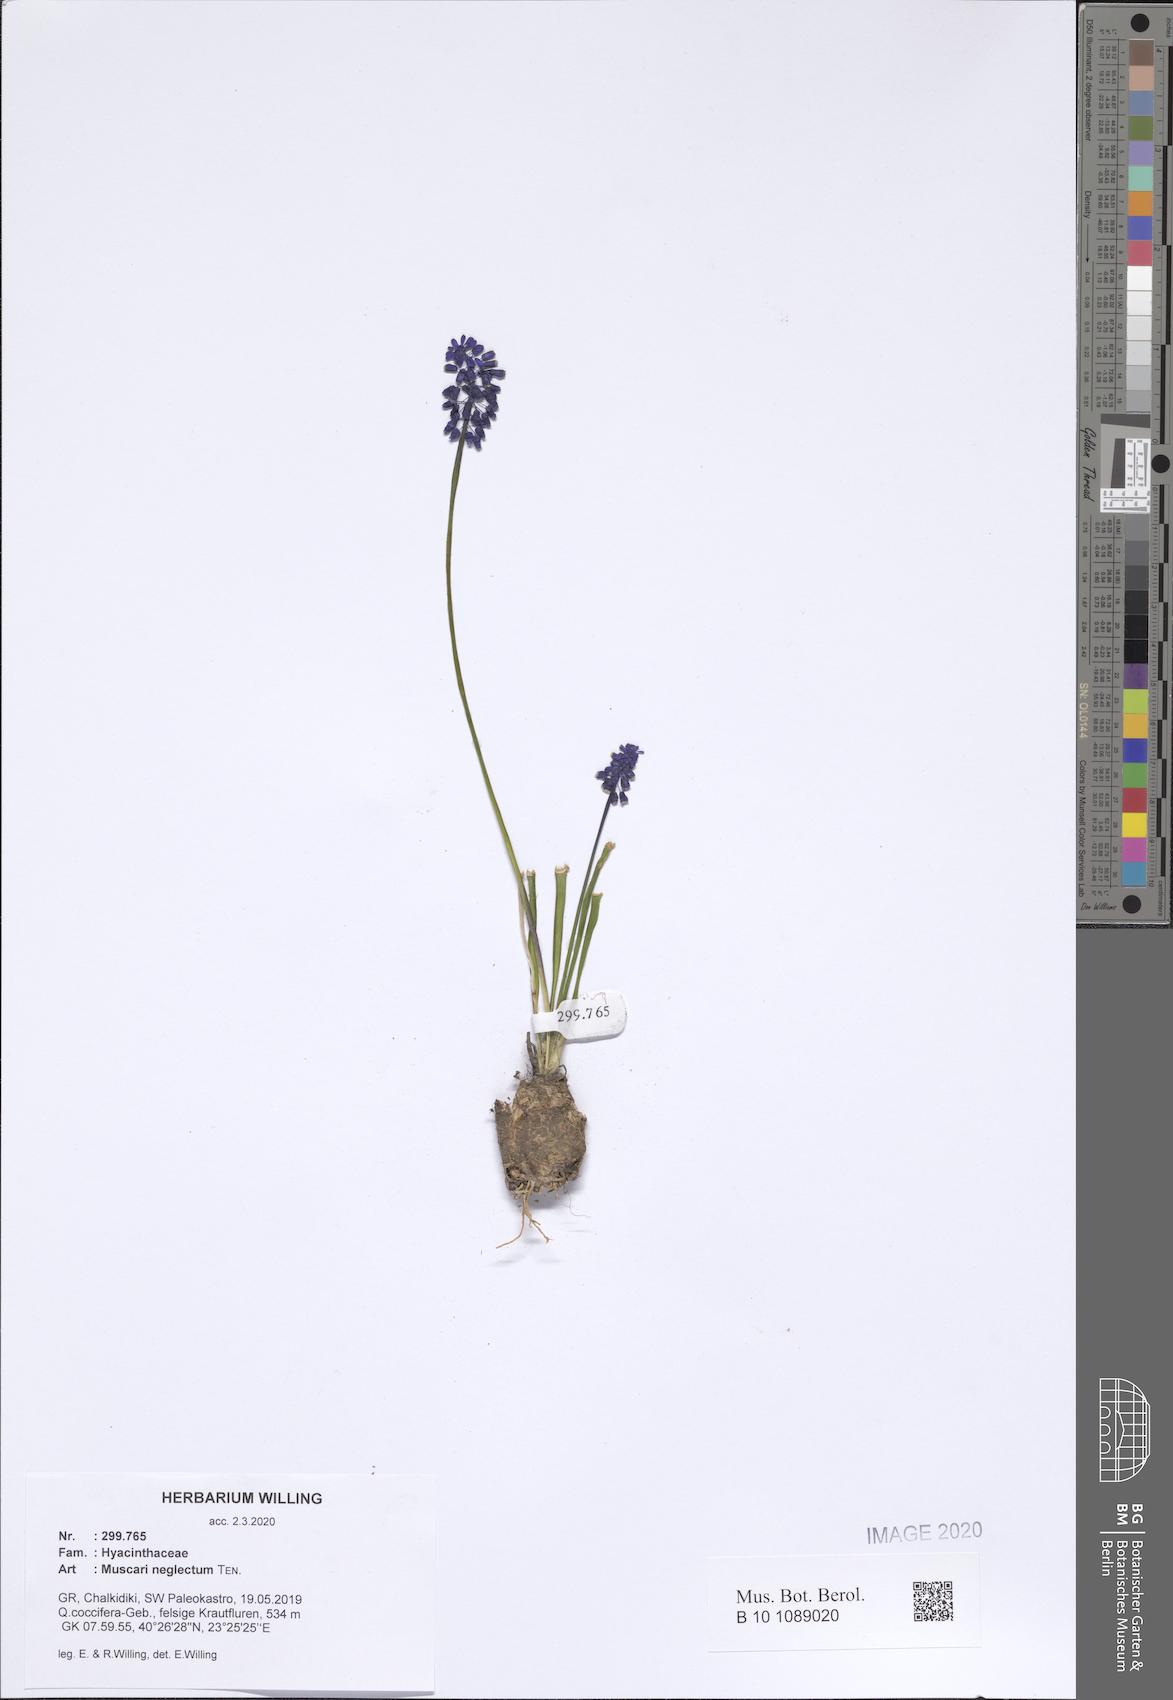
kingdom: Plantae
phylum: Tracheophyta
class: Liliopsida
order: Asparagales
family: Asparagaceae
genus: Muscari
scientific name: Muscari neglectum
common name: Grape-hyacinth
